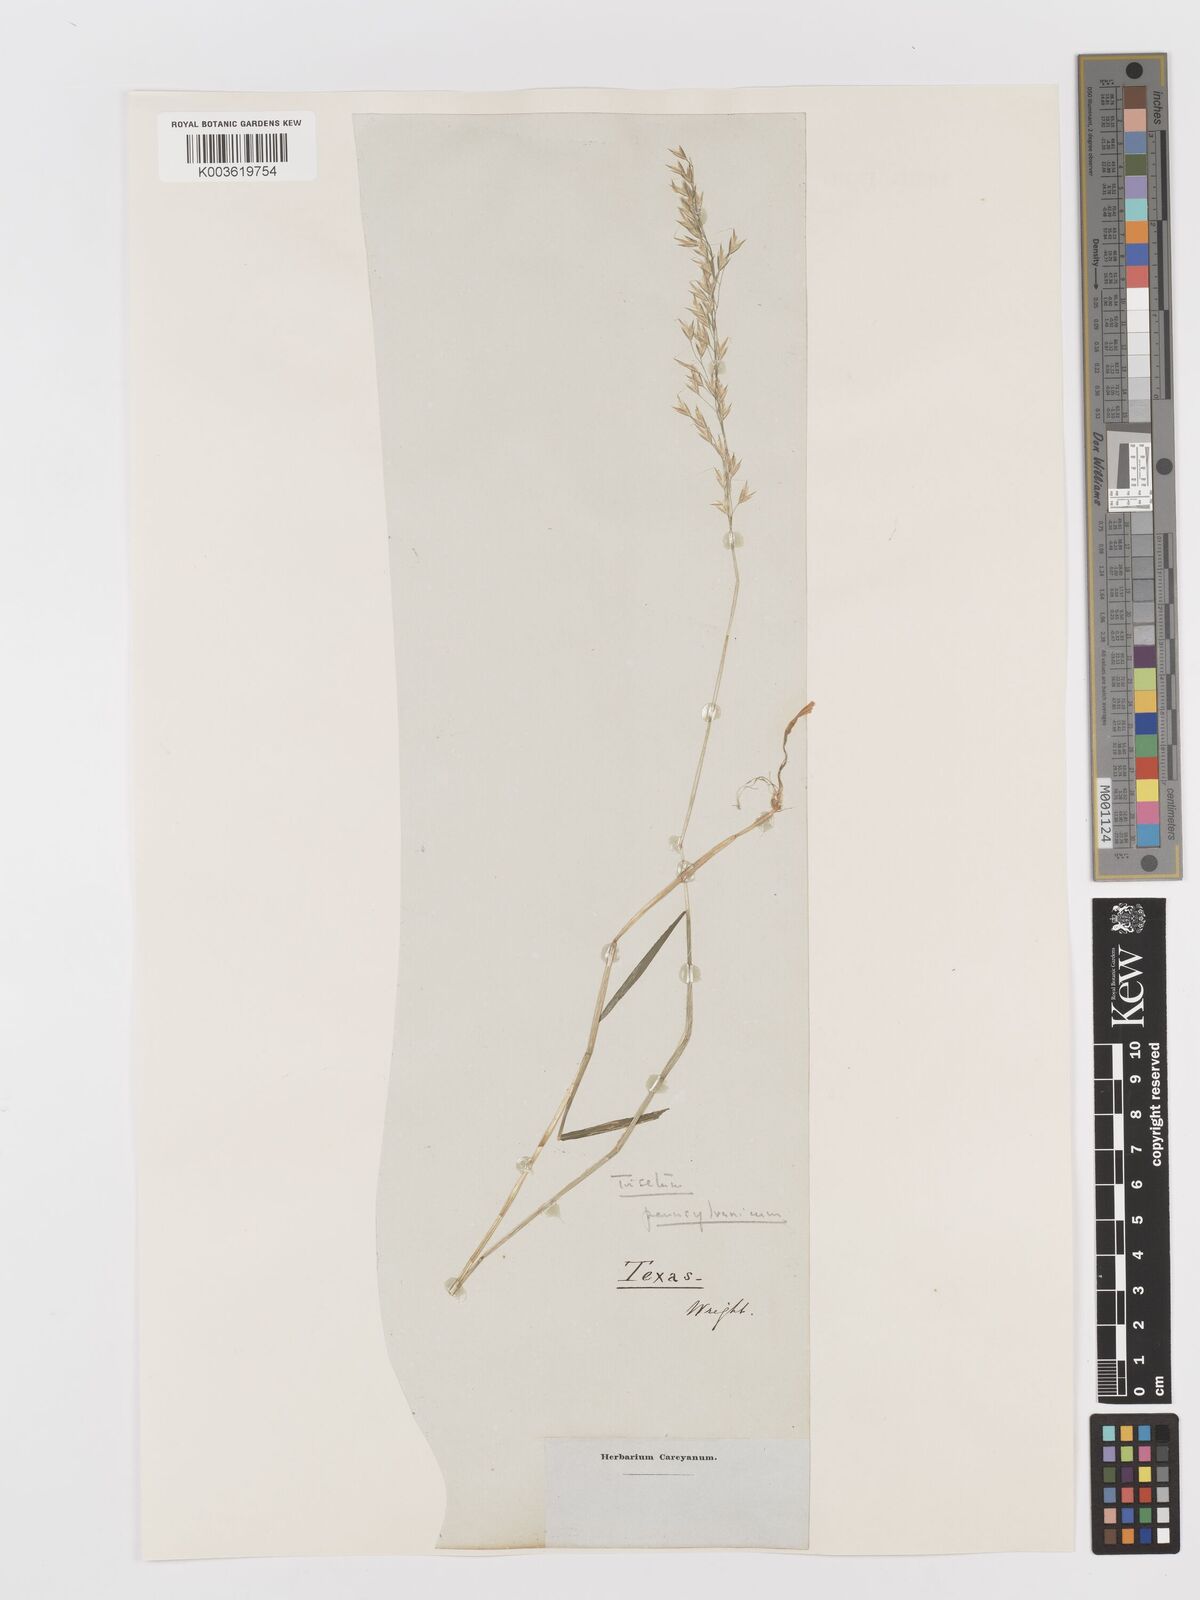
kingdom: Plantae
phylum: Tracheophyta
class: Liliopsida
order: Poales
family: Poaceae
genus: Sphenopholis
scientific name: Sphenopholis pensylvanica
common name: Swamp oats
